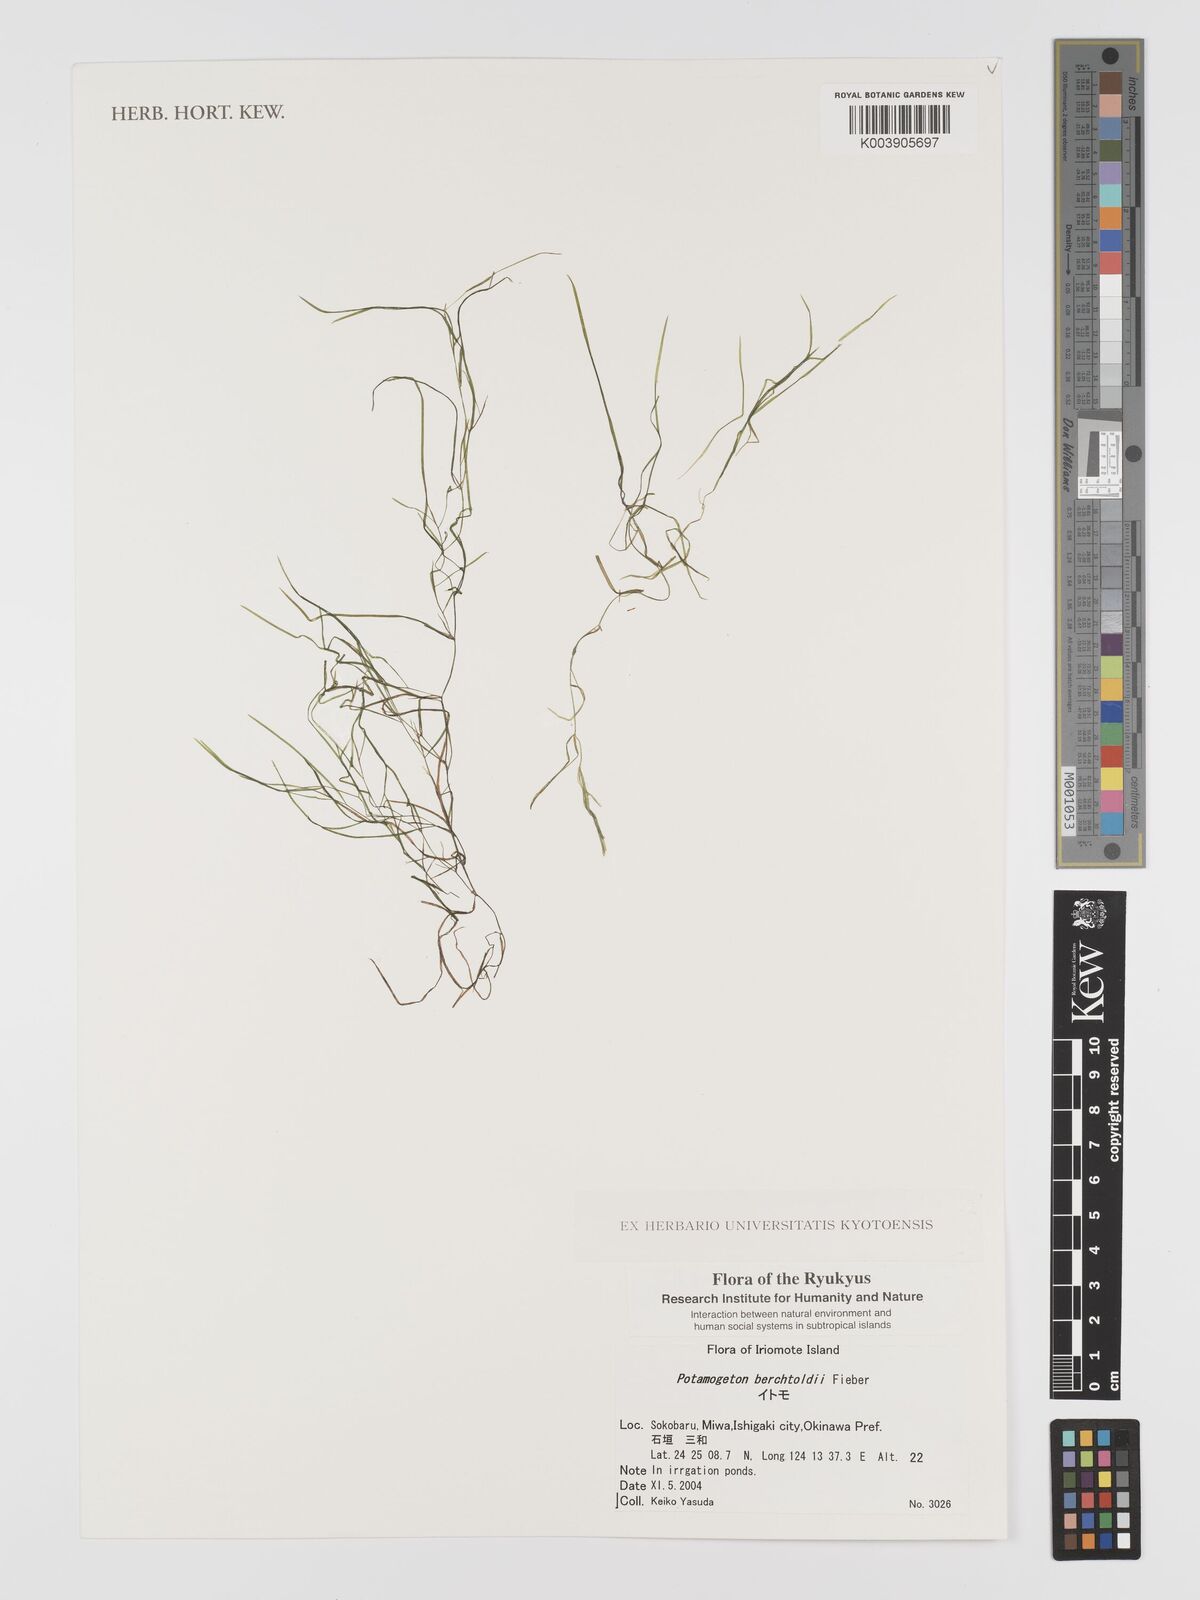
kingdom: Plantae
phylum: Tracheophyta
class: Liliopsida
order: Alismatales
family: Potamogetonaceae
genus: Potamogeton
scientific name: Potamogeton berchtoldii
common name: Small pondweed
